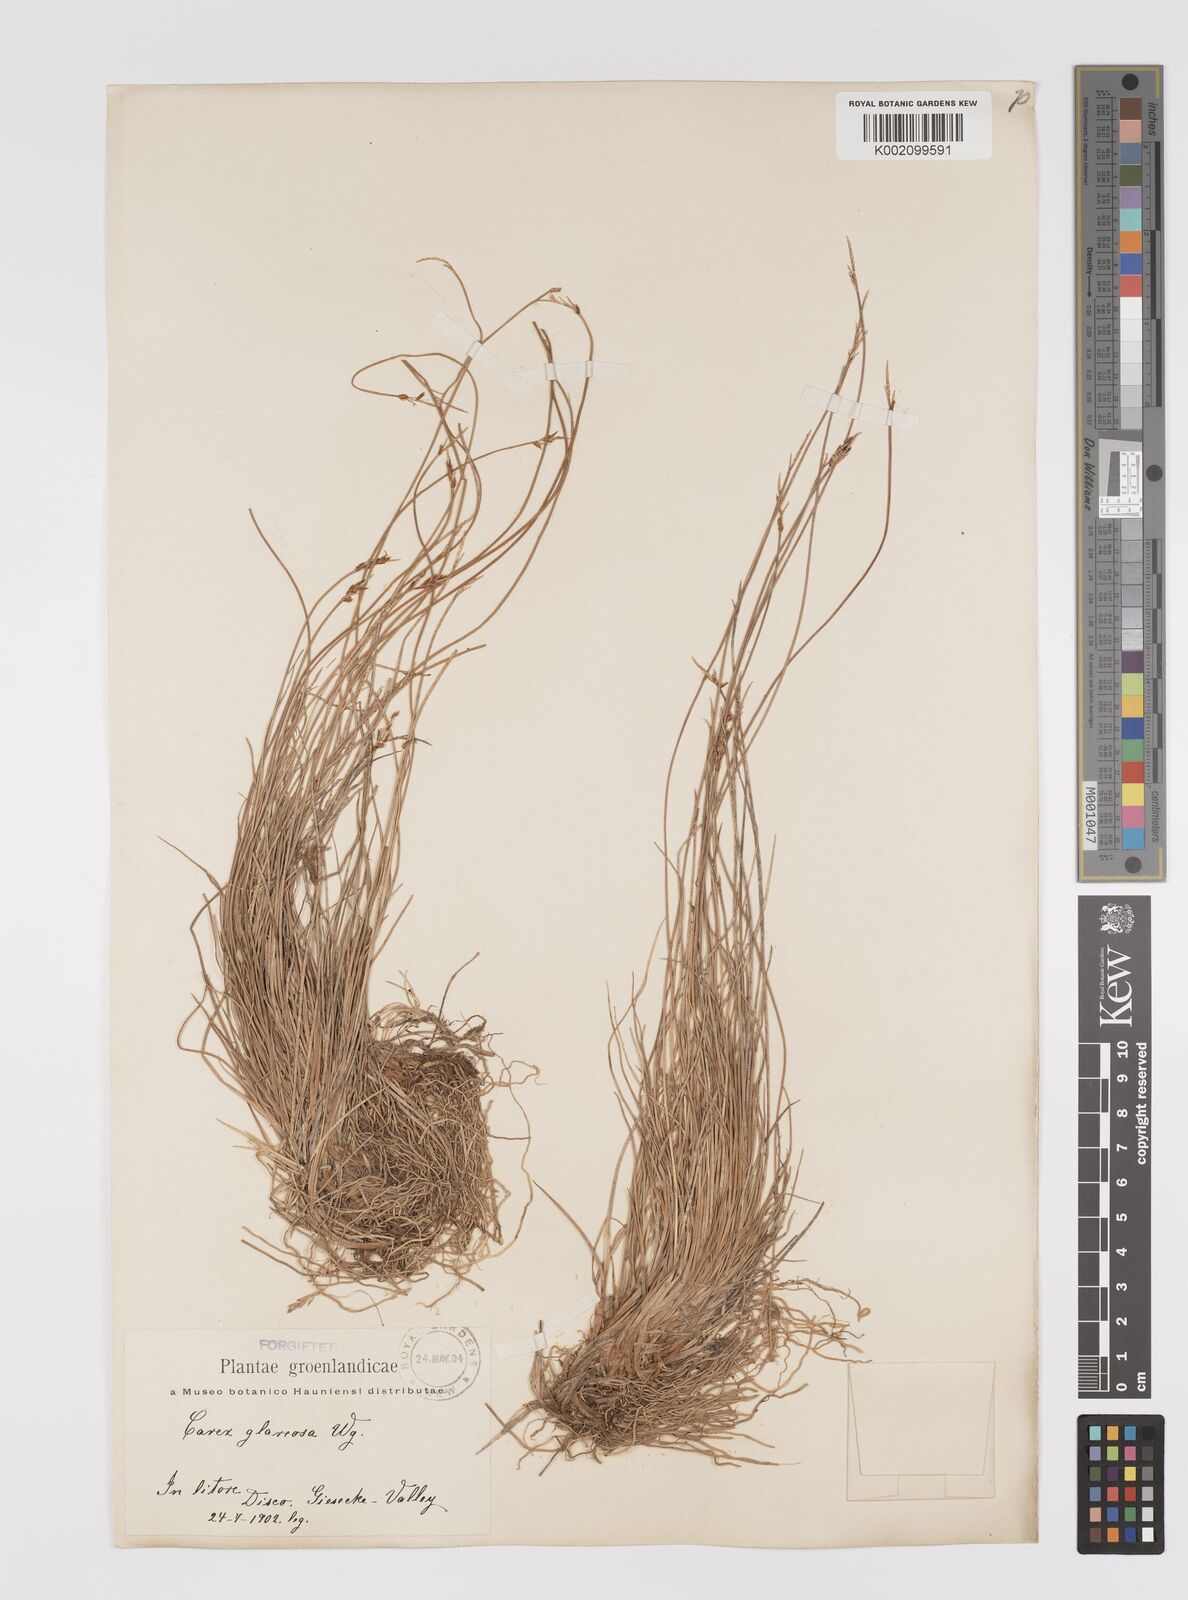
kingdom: Plantae
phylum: Tracheophyta
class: Liliopsida
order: Poales
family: Cyperaceae
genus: Carex
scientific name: Carex glareosa
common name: Clustered sedge
